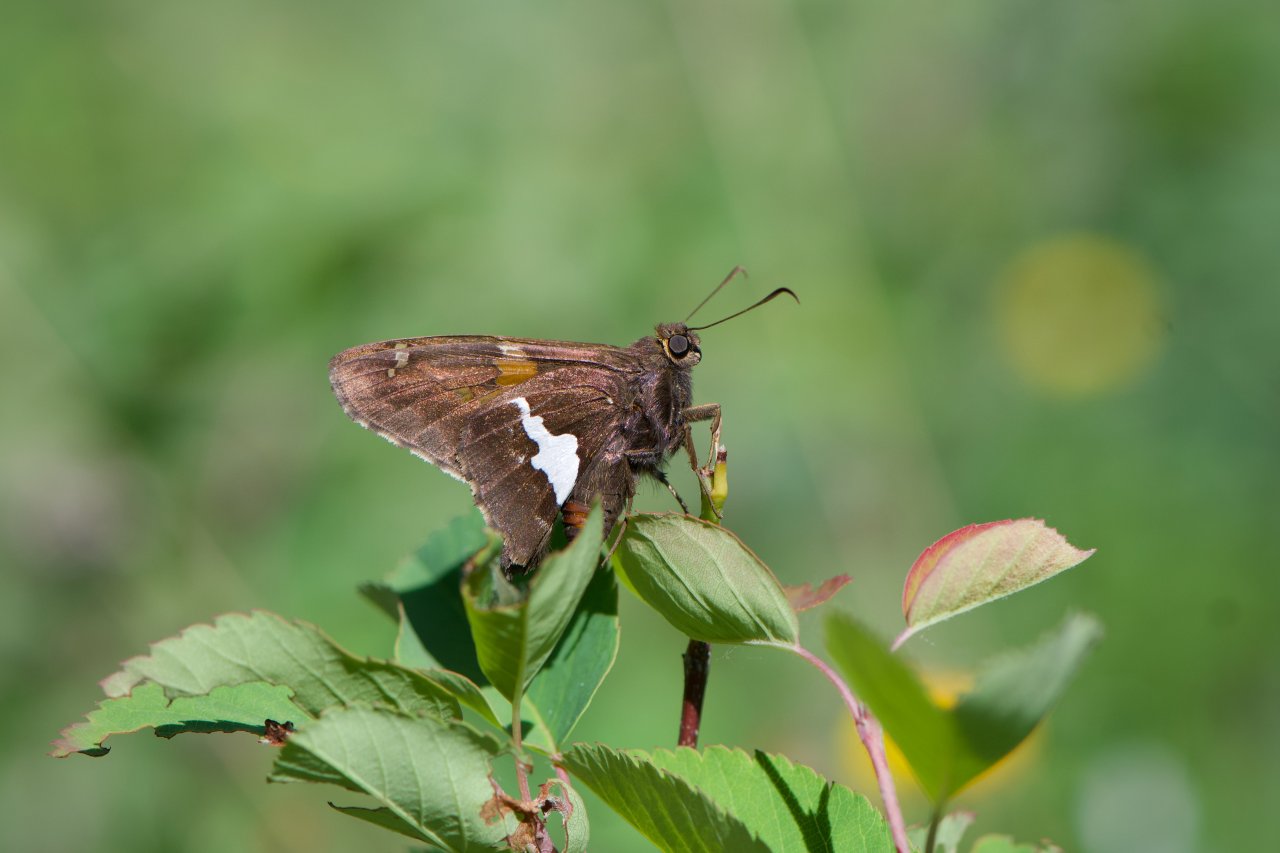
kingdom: Animalia
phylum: Arthropoda
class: Insecta
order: Lepidoptera
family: Hesperiidae
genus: Epargyreus
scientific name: Epargyreus clarus
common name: Silver-spotted Skipper
